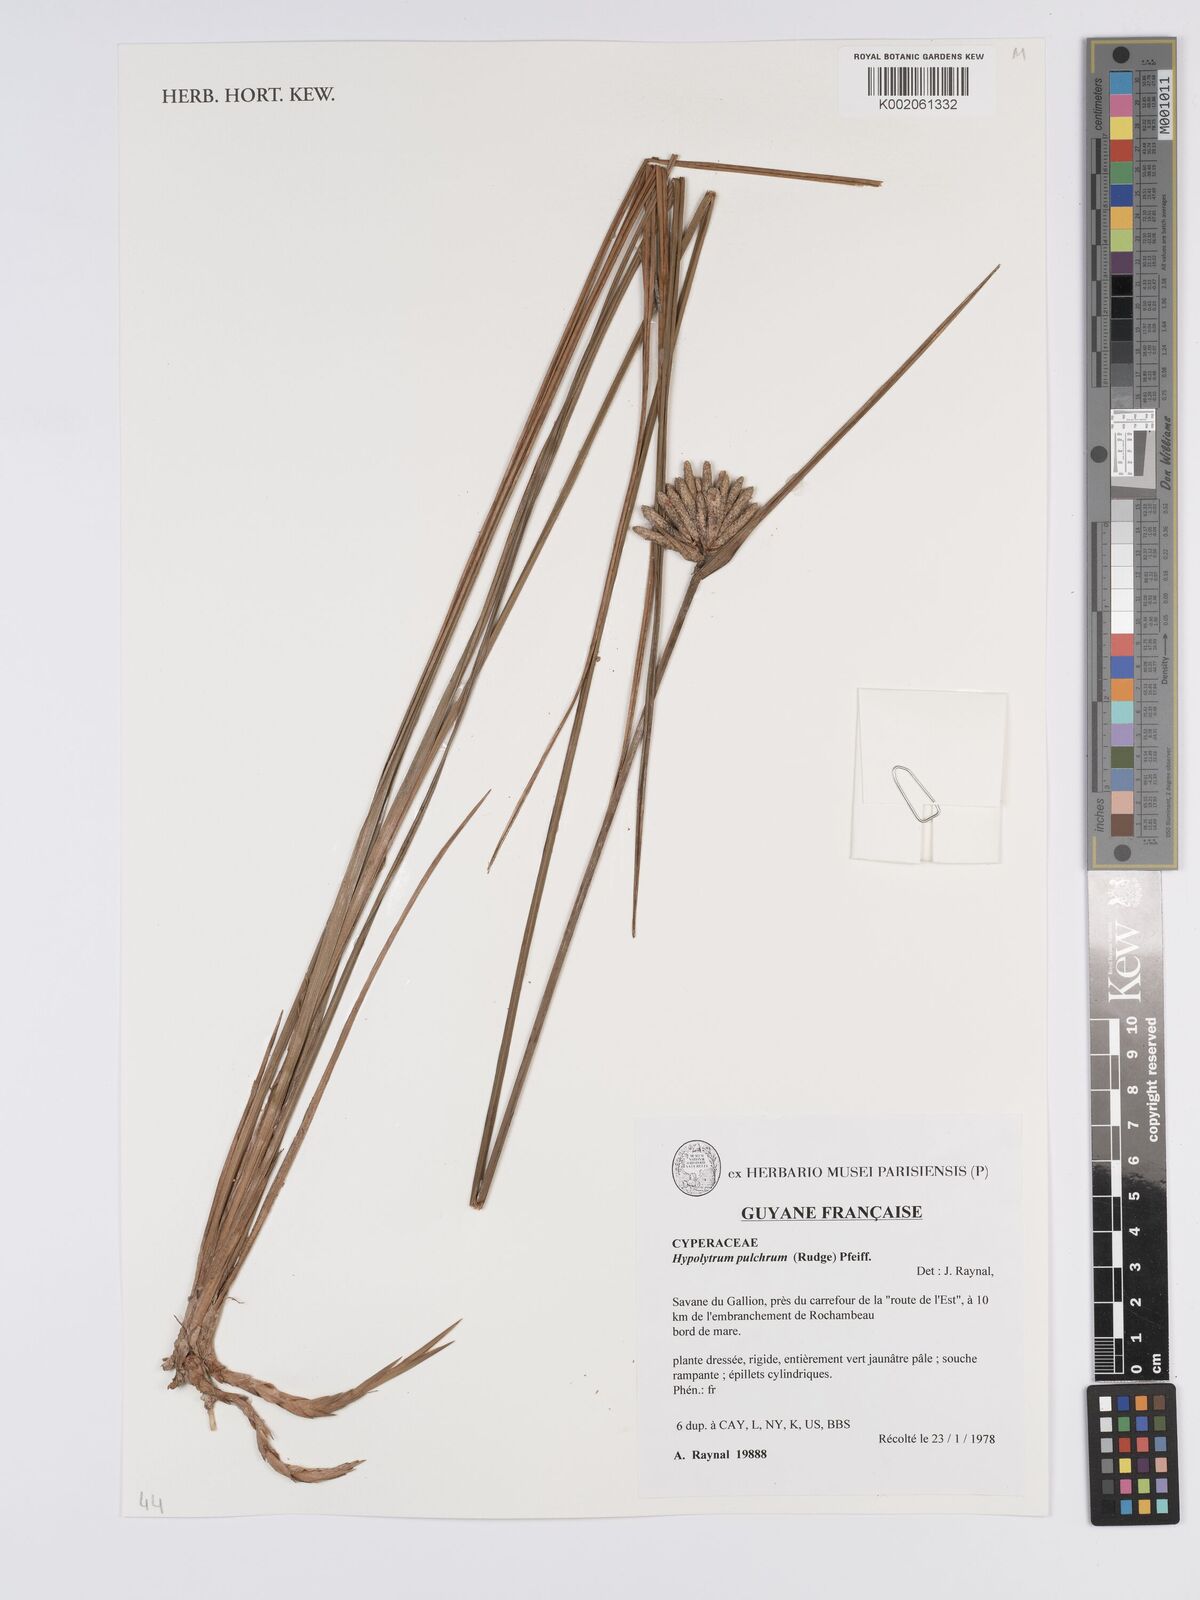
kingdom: Plantae
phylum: Tracheophyta
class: Liliopsida
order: Poales
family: Cyperaceae
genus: Hypolytrum
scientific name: Hypolytrum pulchrum
